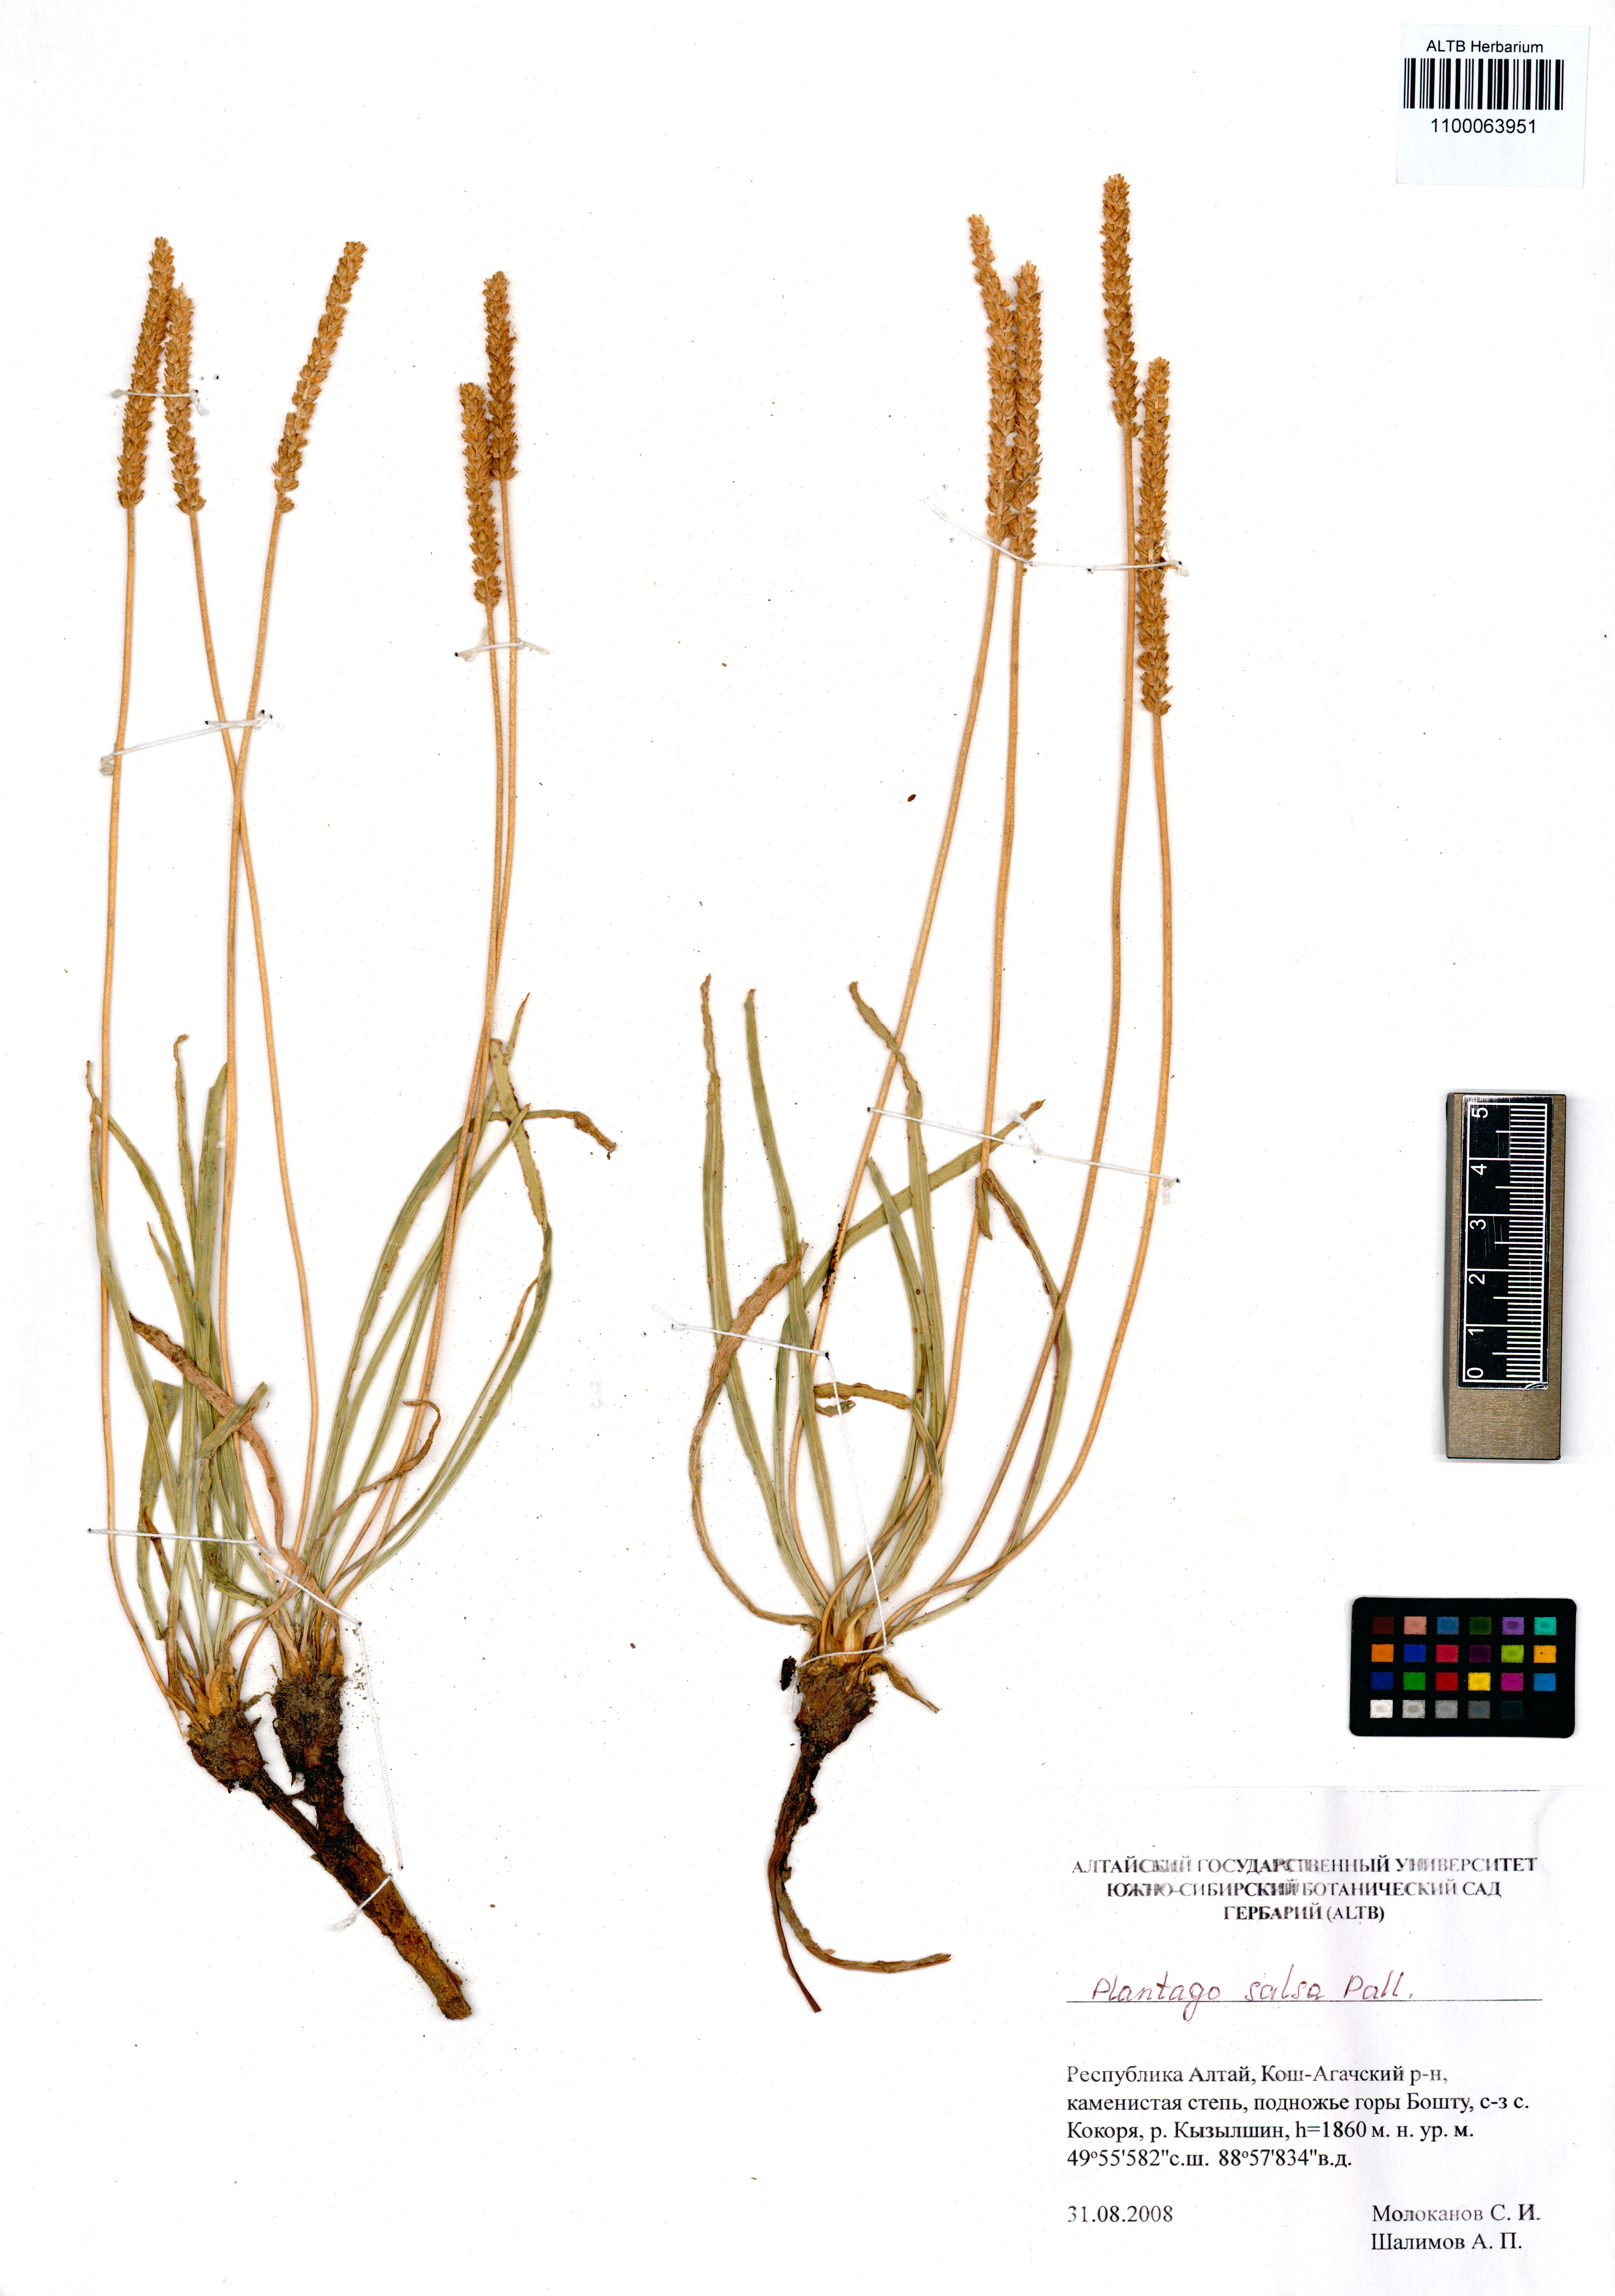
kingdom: Plantae
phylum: Tracheophyta
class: Magnoliopsida
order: Lamiales
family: Plantaginaceae
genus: Plantago
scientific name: Plantago salsa
